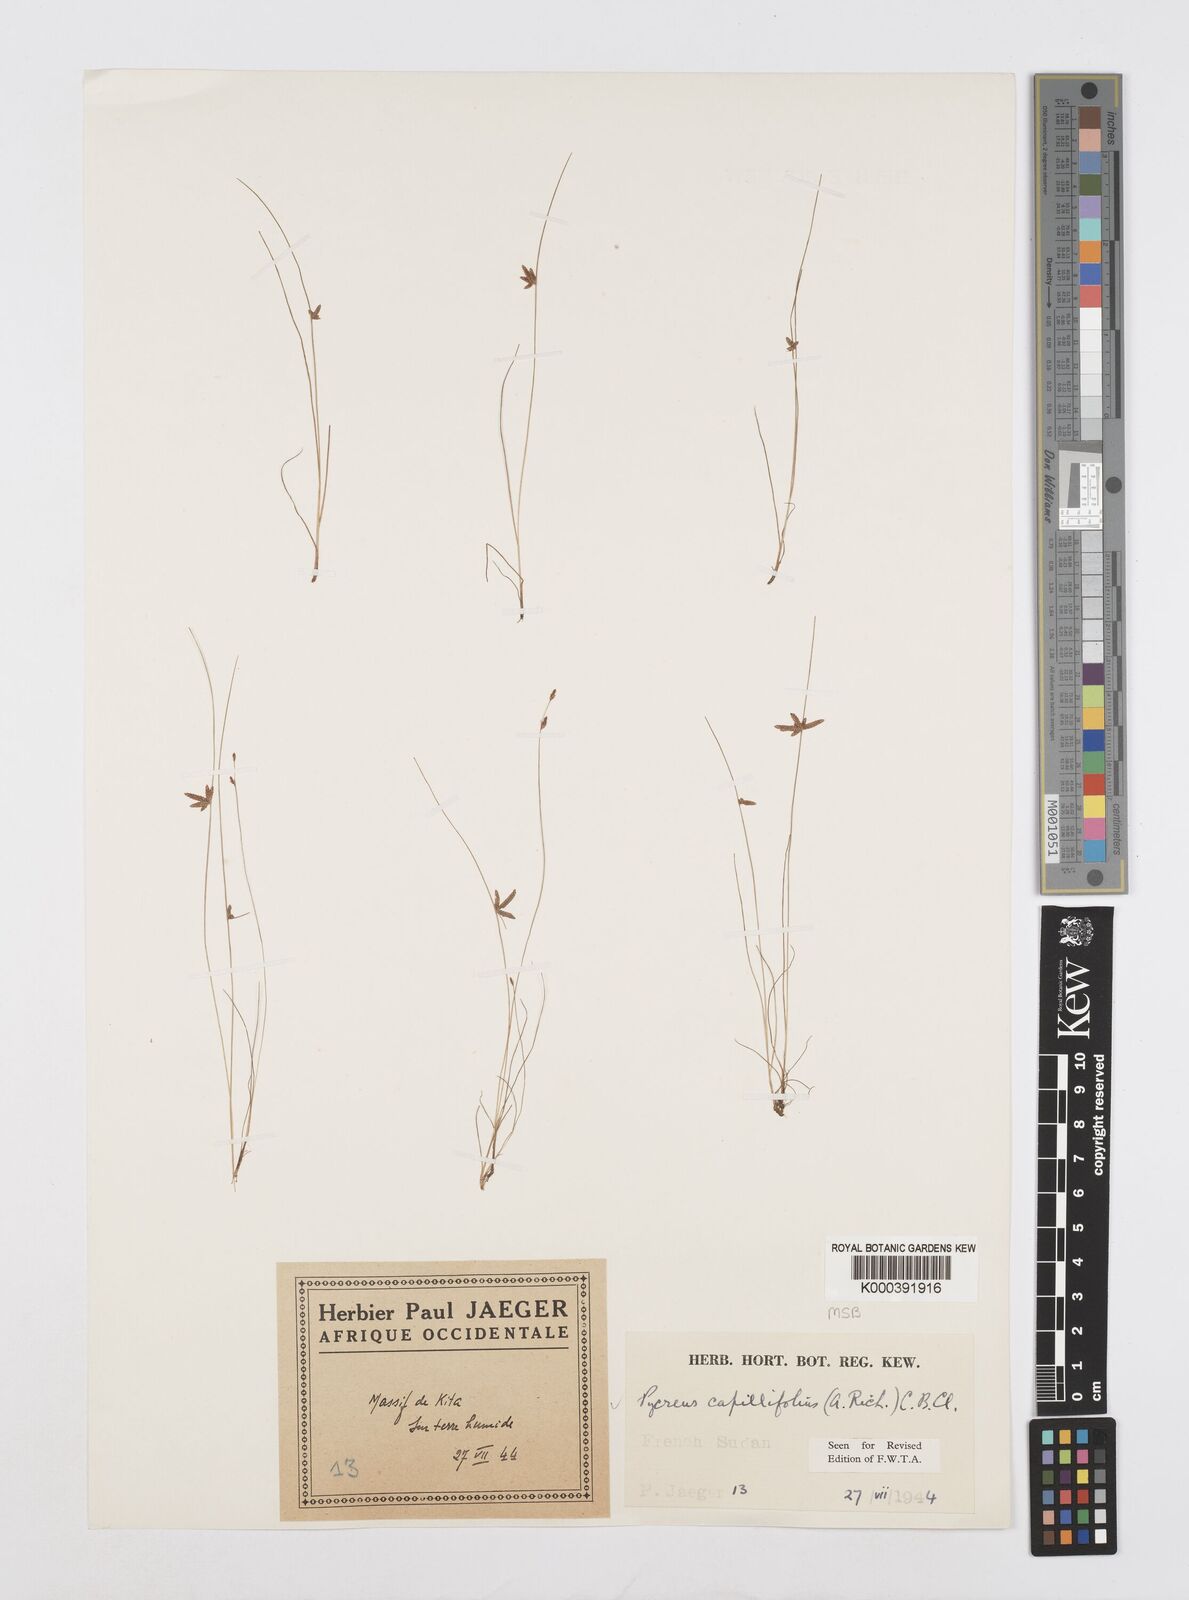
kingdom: Plantae
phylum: Tracheophyta
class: Liliopsida
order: Poales
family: Cyperaceae
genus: Cyperus
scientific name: Cyperus capillifolius
